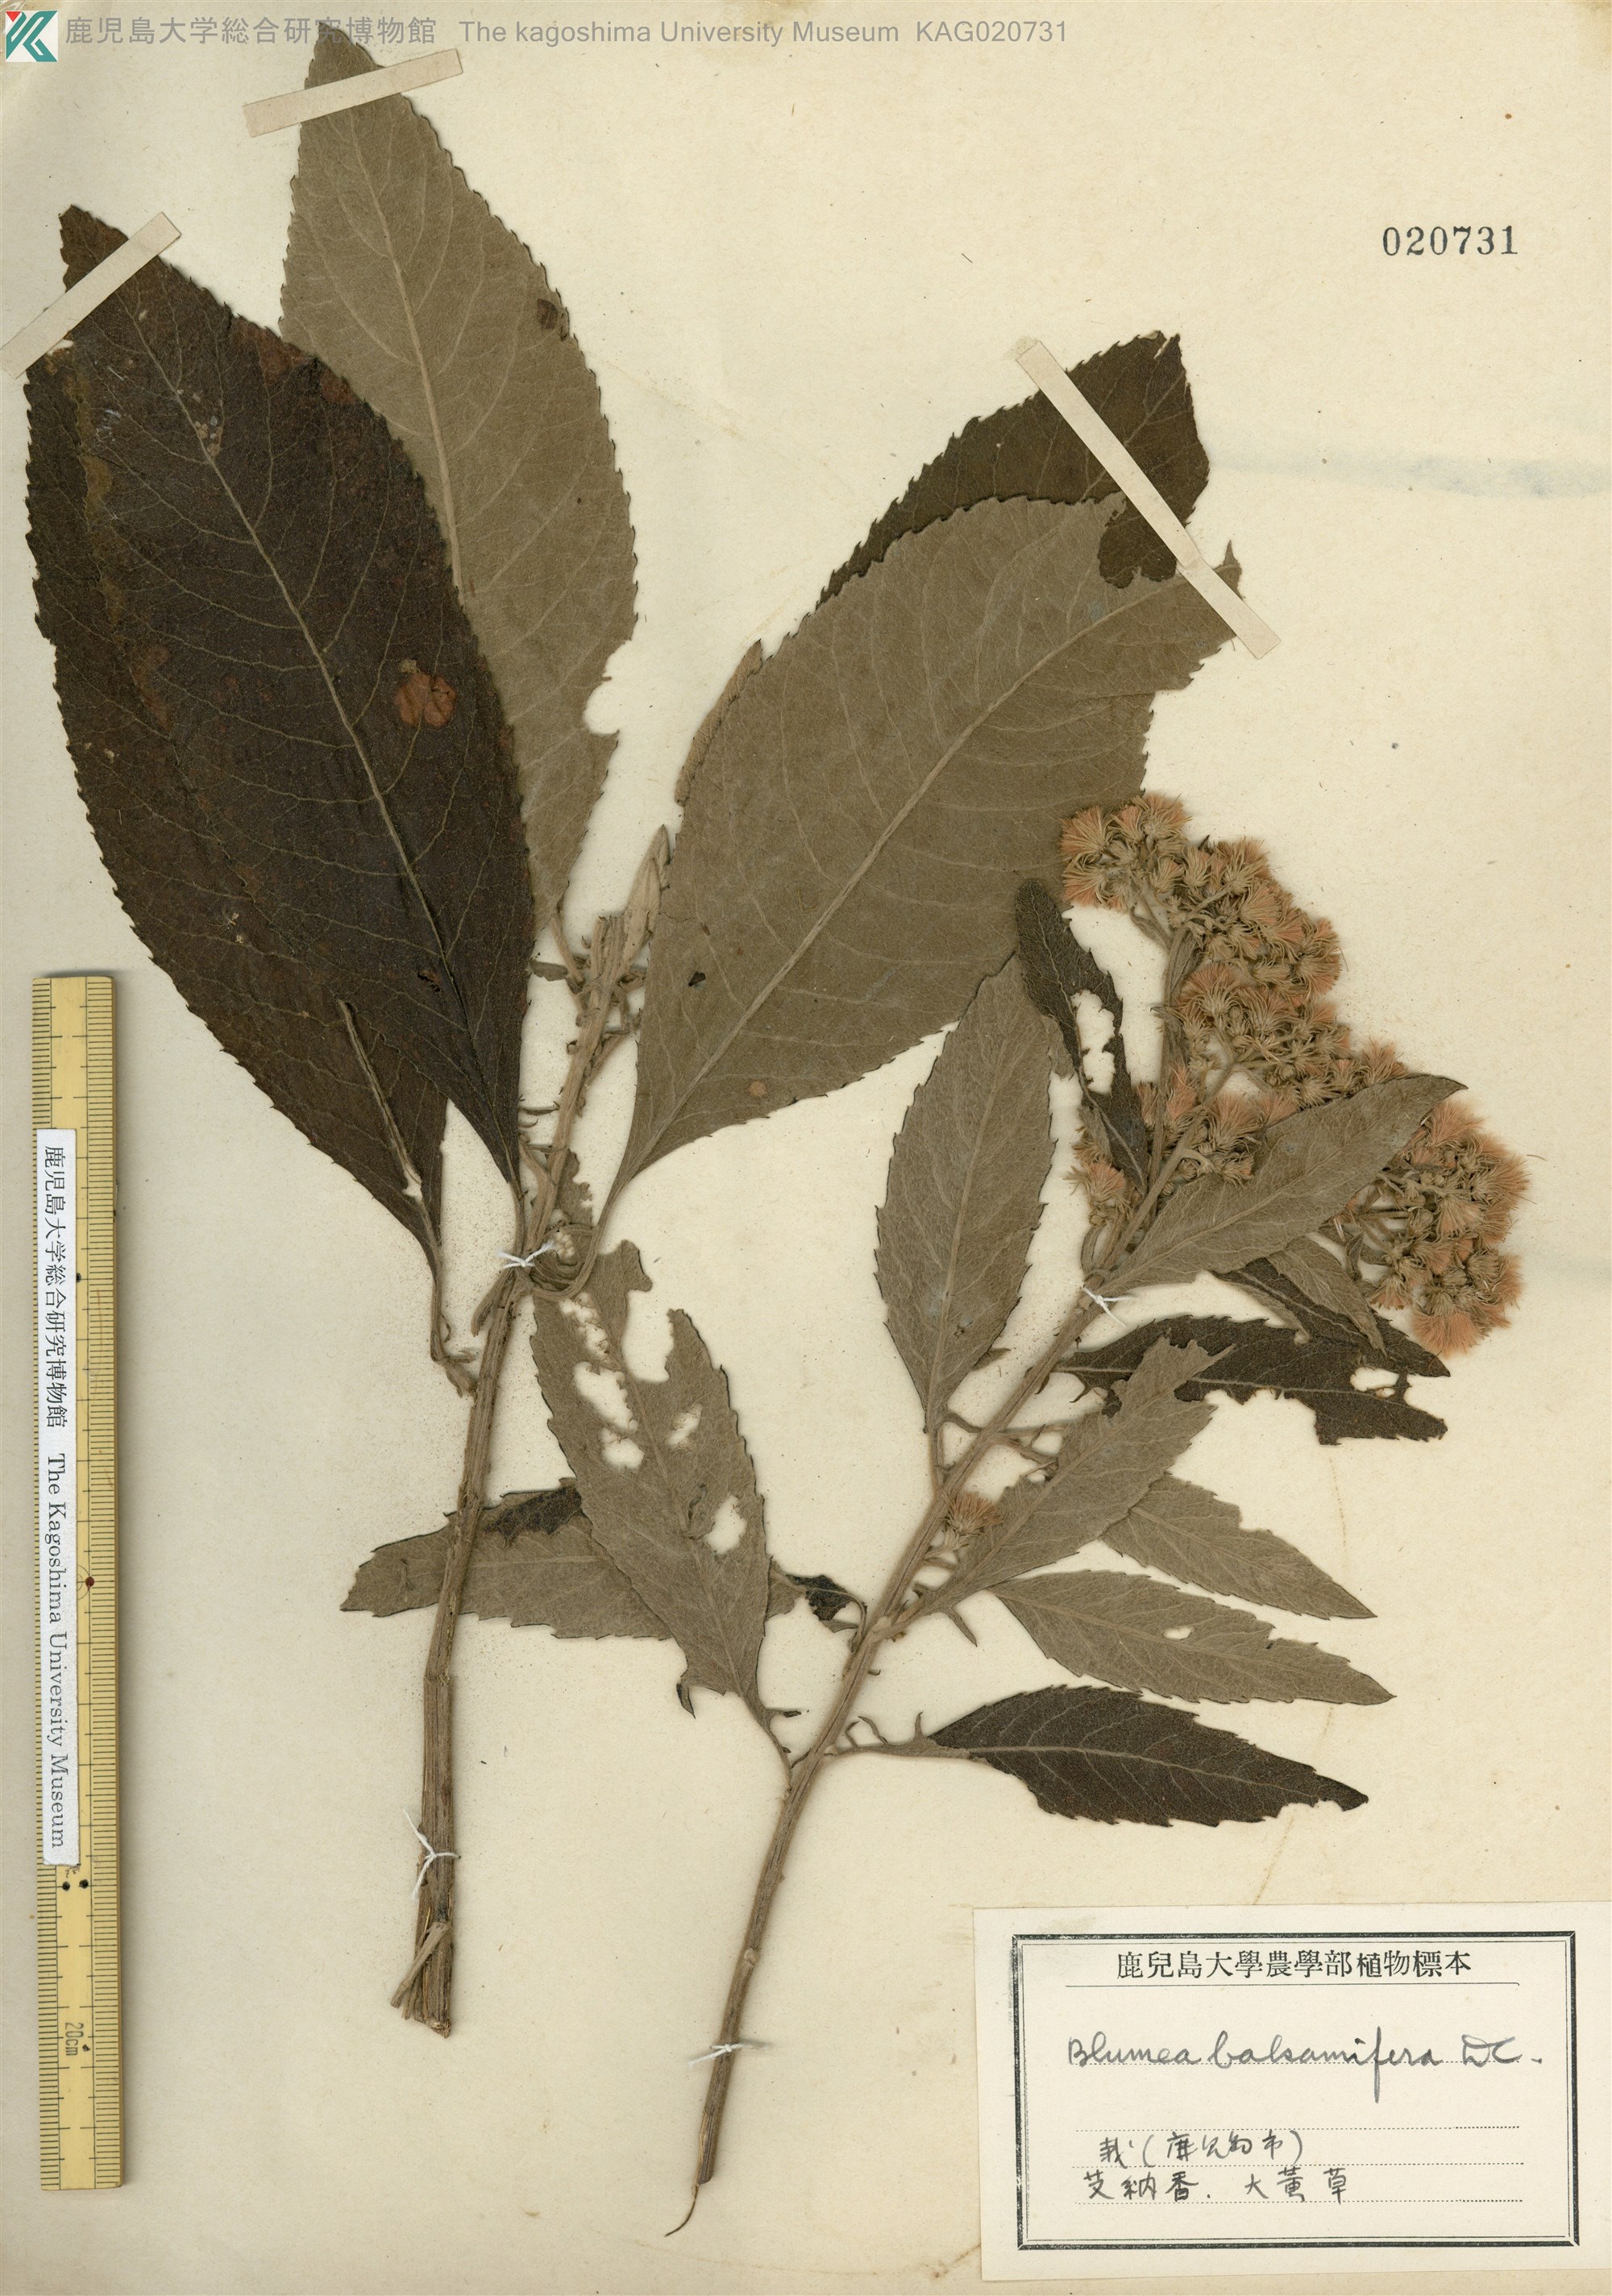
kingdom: Plantae
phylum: Tracheophyta
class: Magnoliopsida
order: Asterales
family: Asteraceae
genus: Blumea
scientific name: Blumea balsamifera
